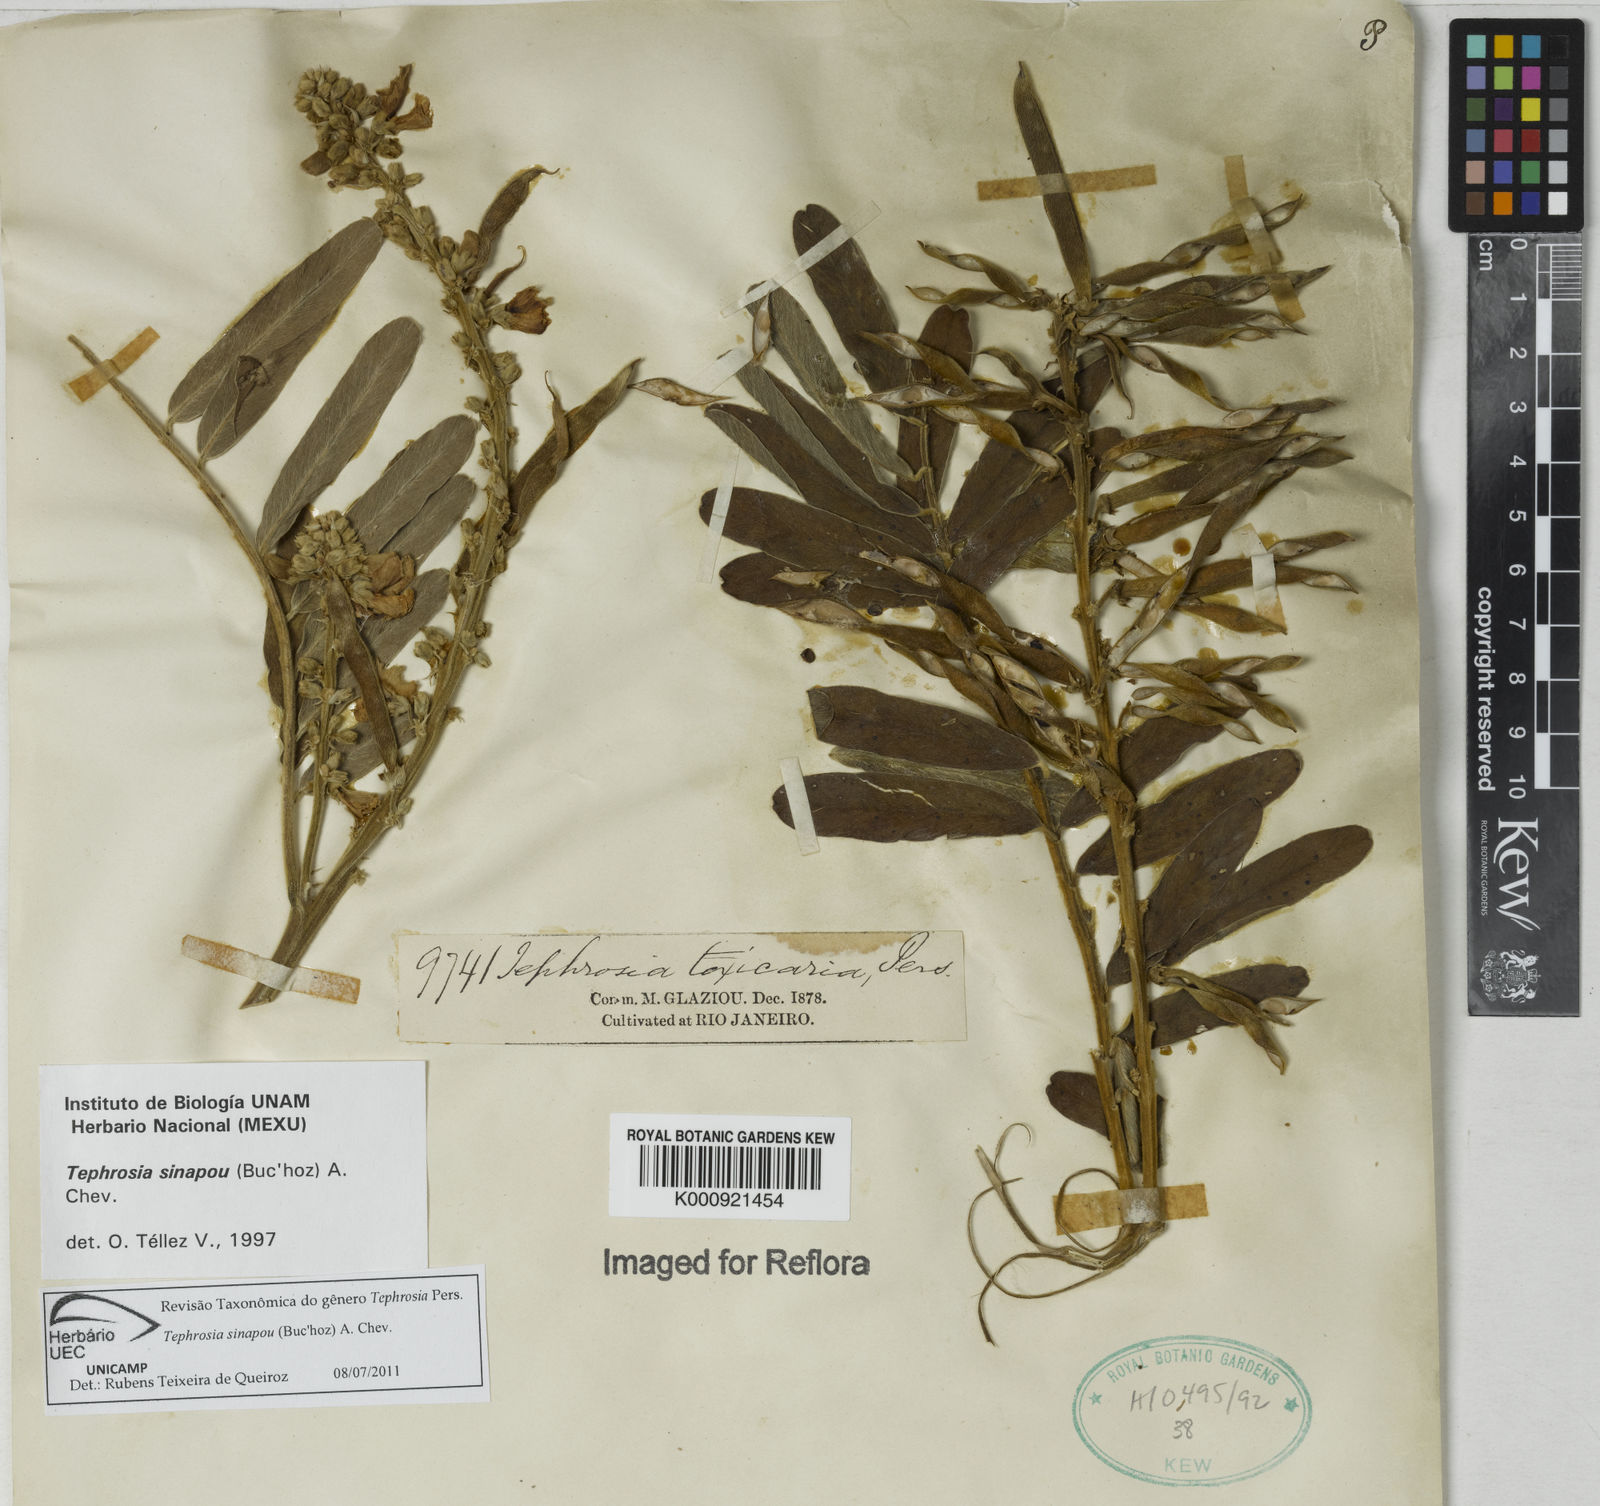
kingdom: Plantae
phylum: Tracheophyta
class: Magnoliopsida
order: Fabales
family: Fabaceae
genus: Tephrosia
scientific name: Tephrosia
